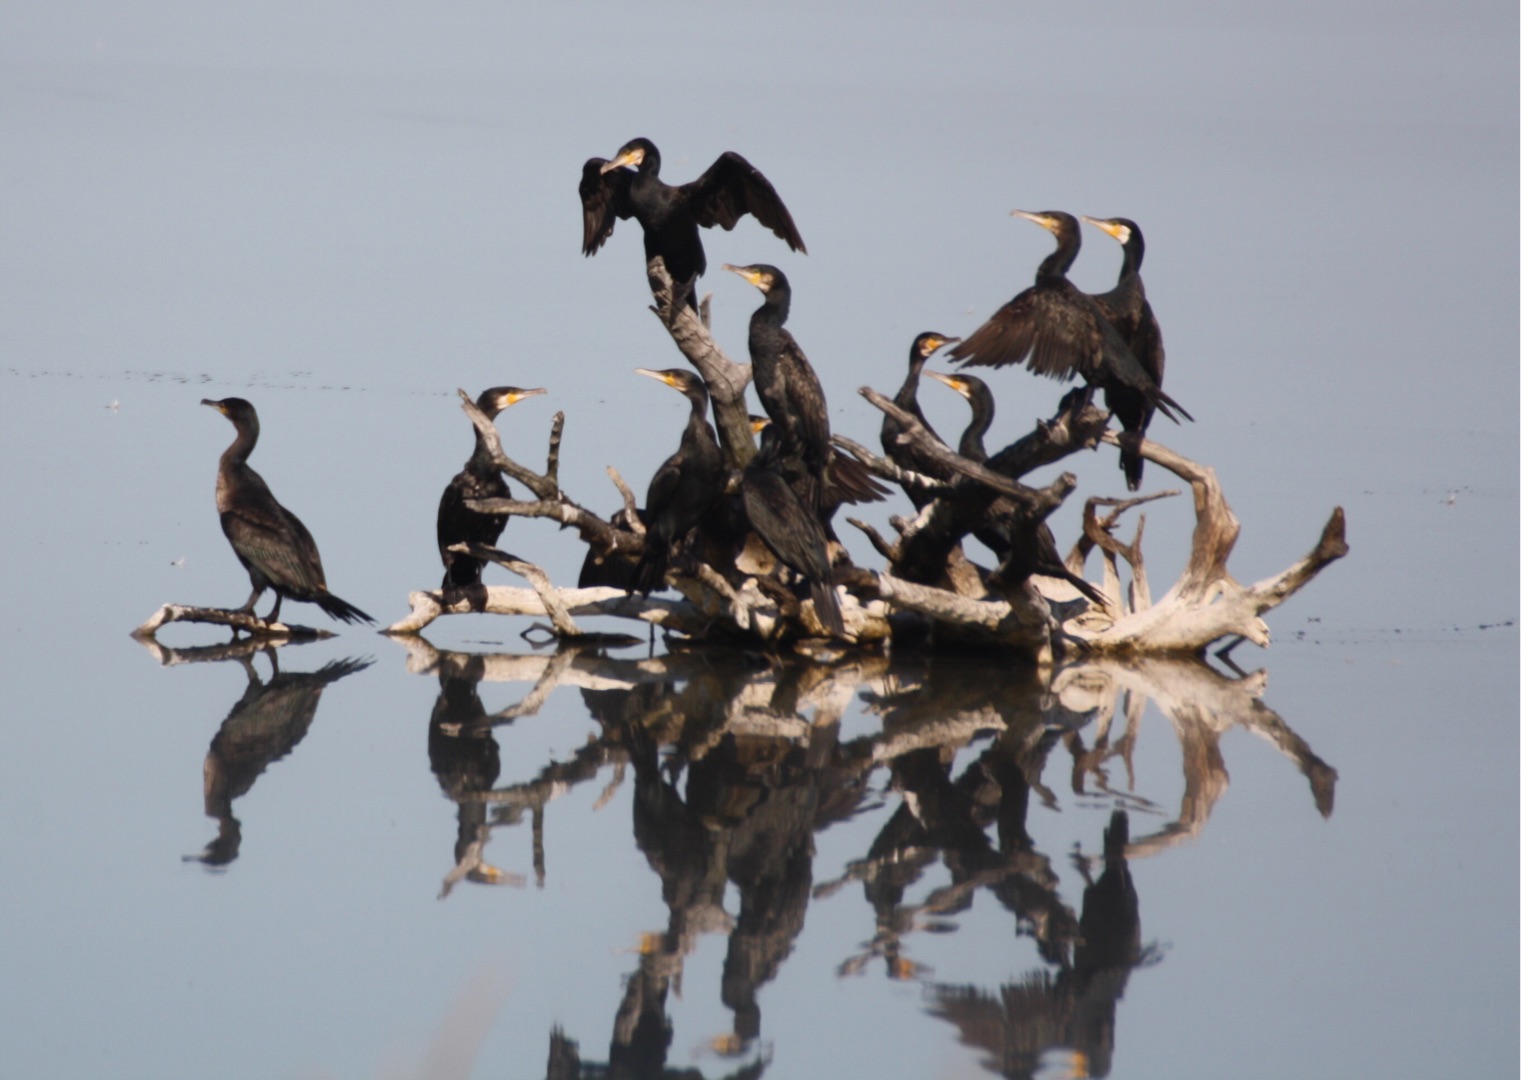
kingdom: Animalia
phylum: Chordata
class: Aves
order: Suliformes
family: Phalacrocoracidae
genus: Phalacrocorax
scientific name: Phalacrocorax carbo
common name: Skarv
